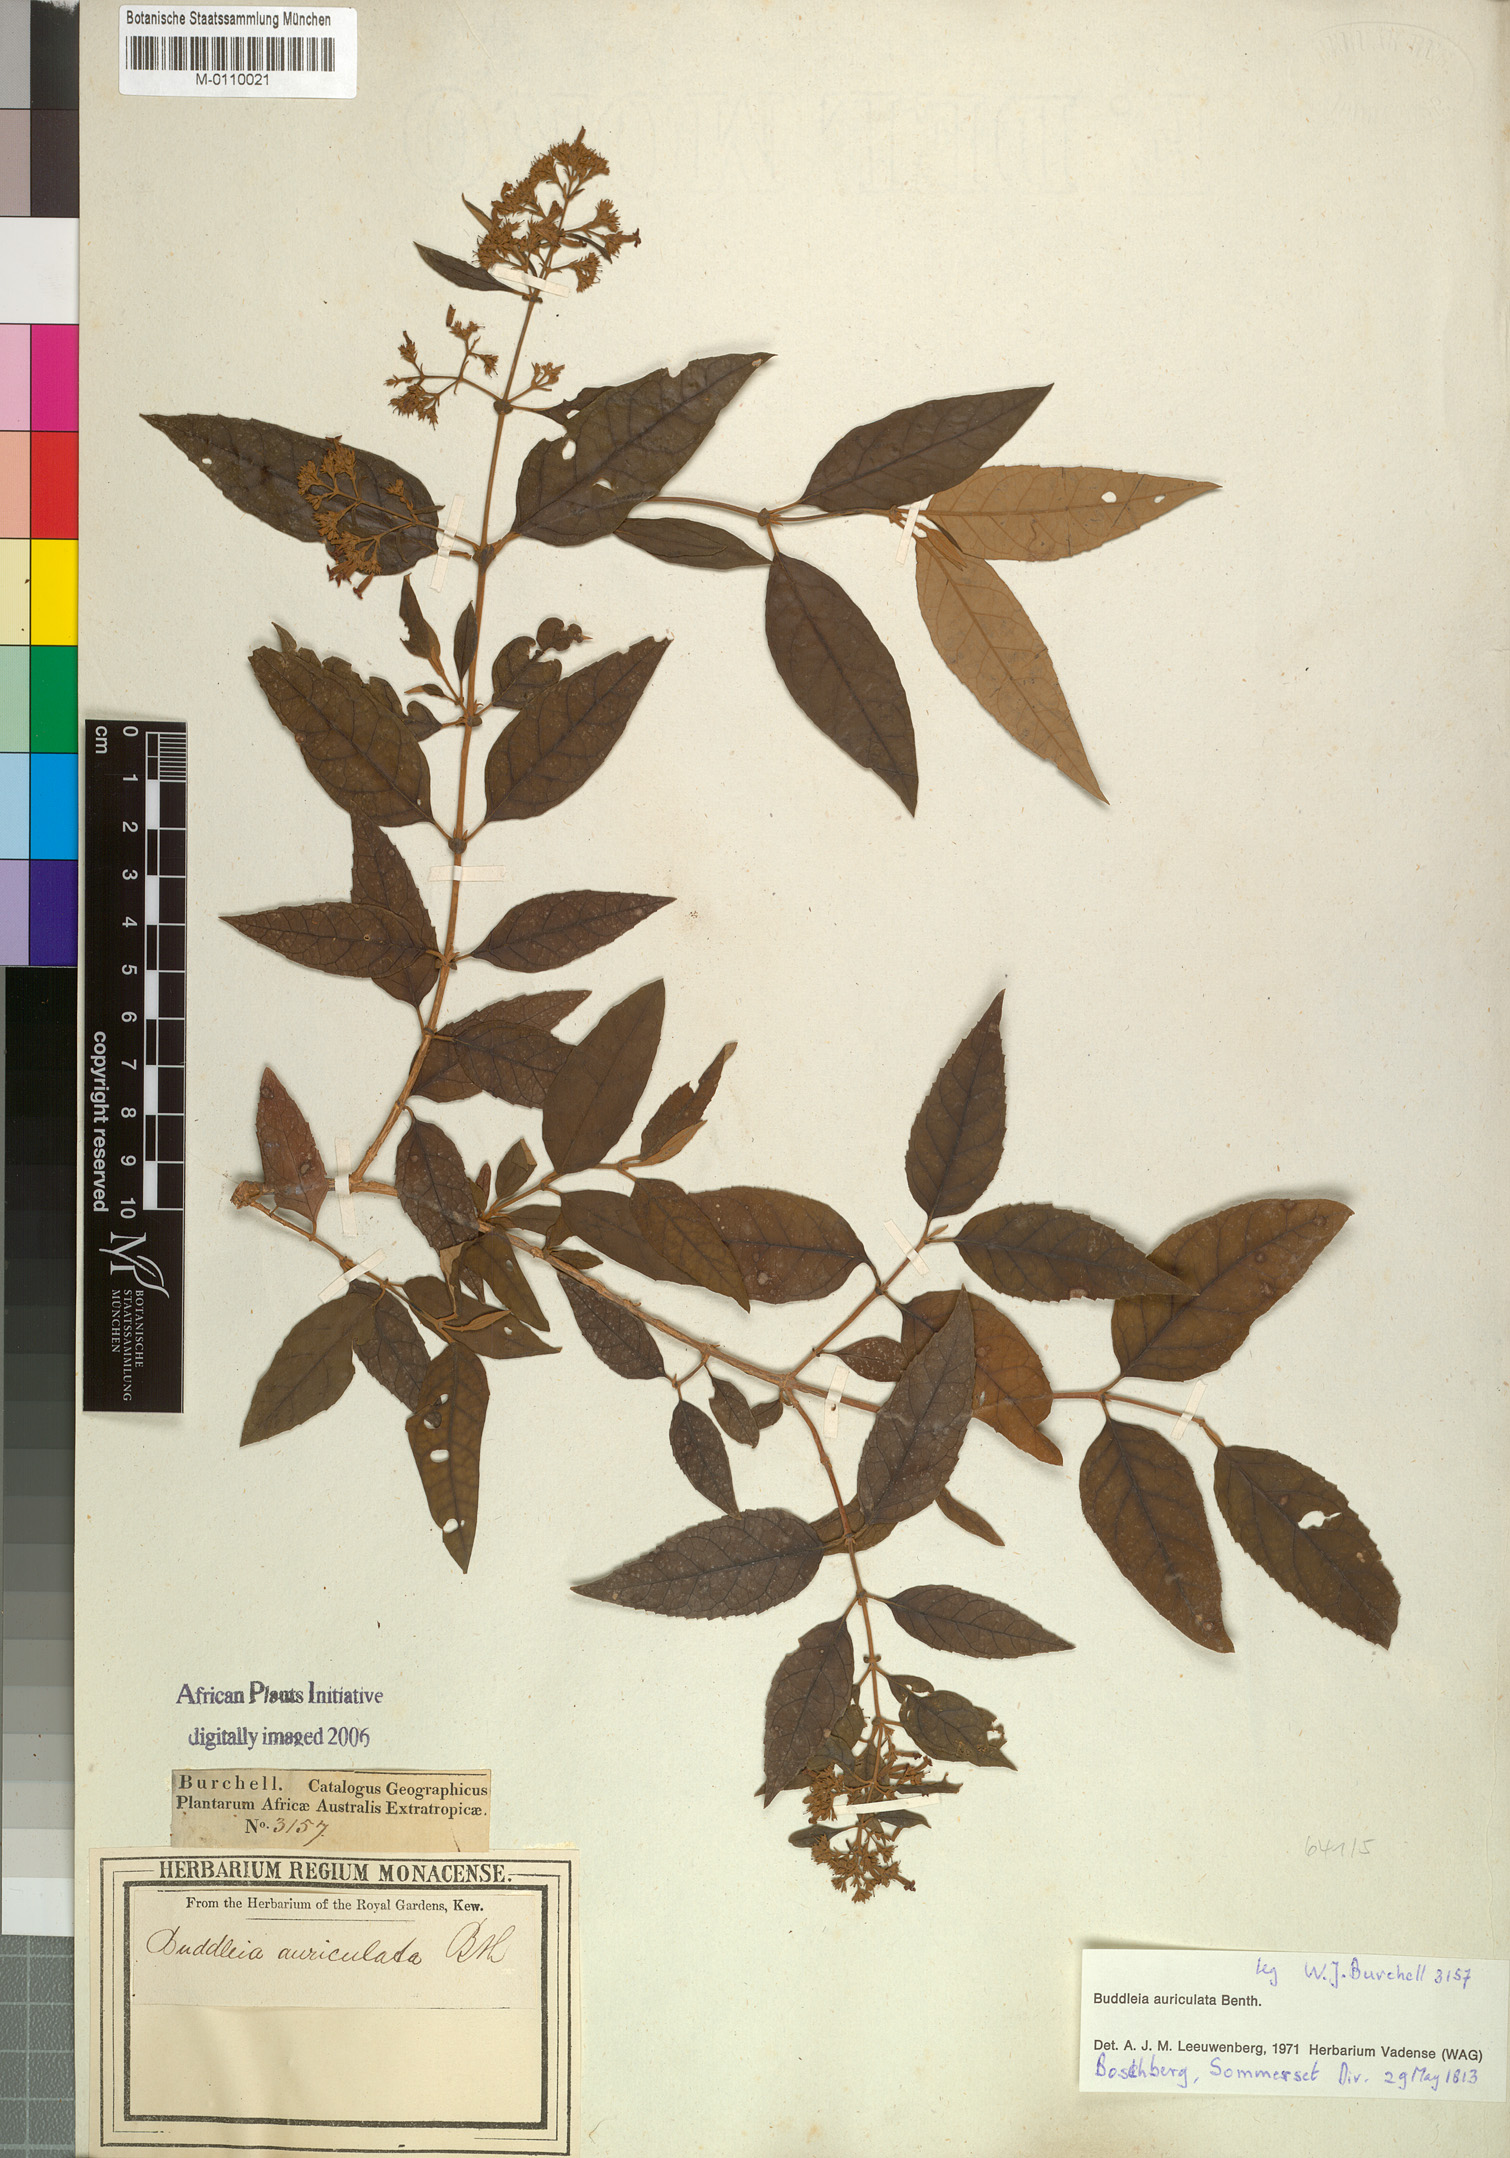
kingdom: Plantae
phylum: Tracheophyta
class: Magnoliopsida
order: Lamiales
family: Scrophulariaceae
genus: Buddleja
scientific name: Buddleja auriculata
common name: Weeping sagewood
